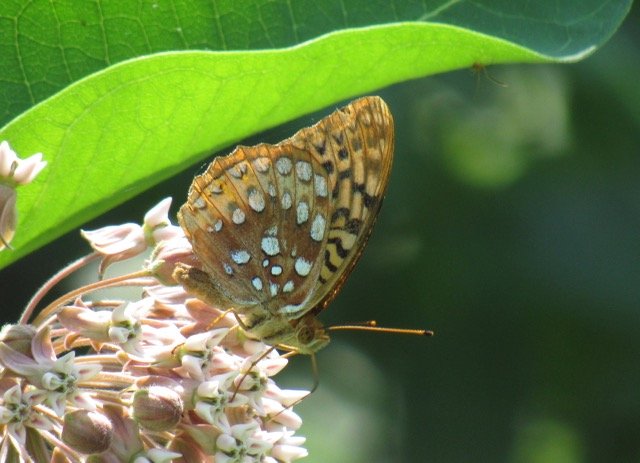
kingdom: Animalia
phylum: Arthropoda
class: Insecta
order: Lepidoptera
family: Nymphalidae
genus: Speyeria
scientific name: Speyeria cybele
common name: Great Spangled Fritillary
